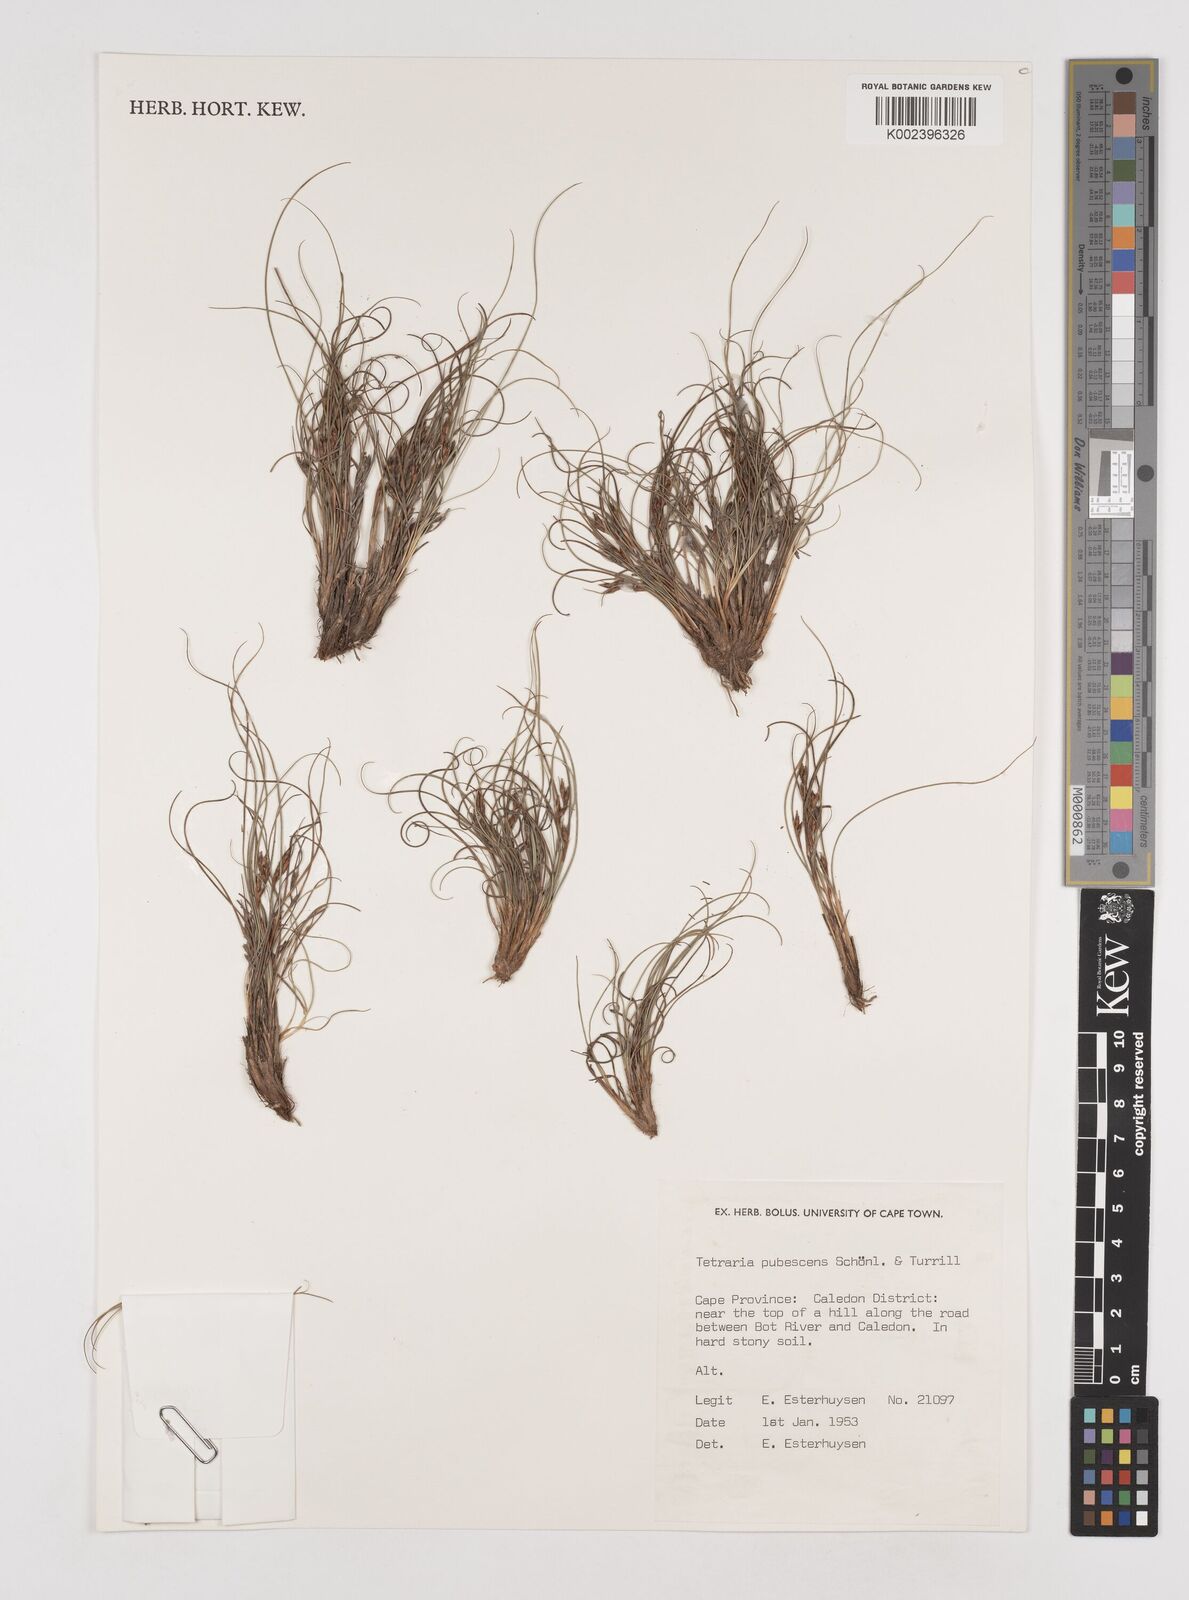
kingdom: Plantae
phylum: Tracheophyta
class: Liliopsida
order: Poales
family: Cyperaceae
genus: Tetraria
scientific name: Tetraria pubescens
